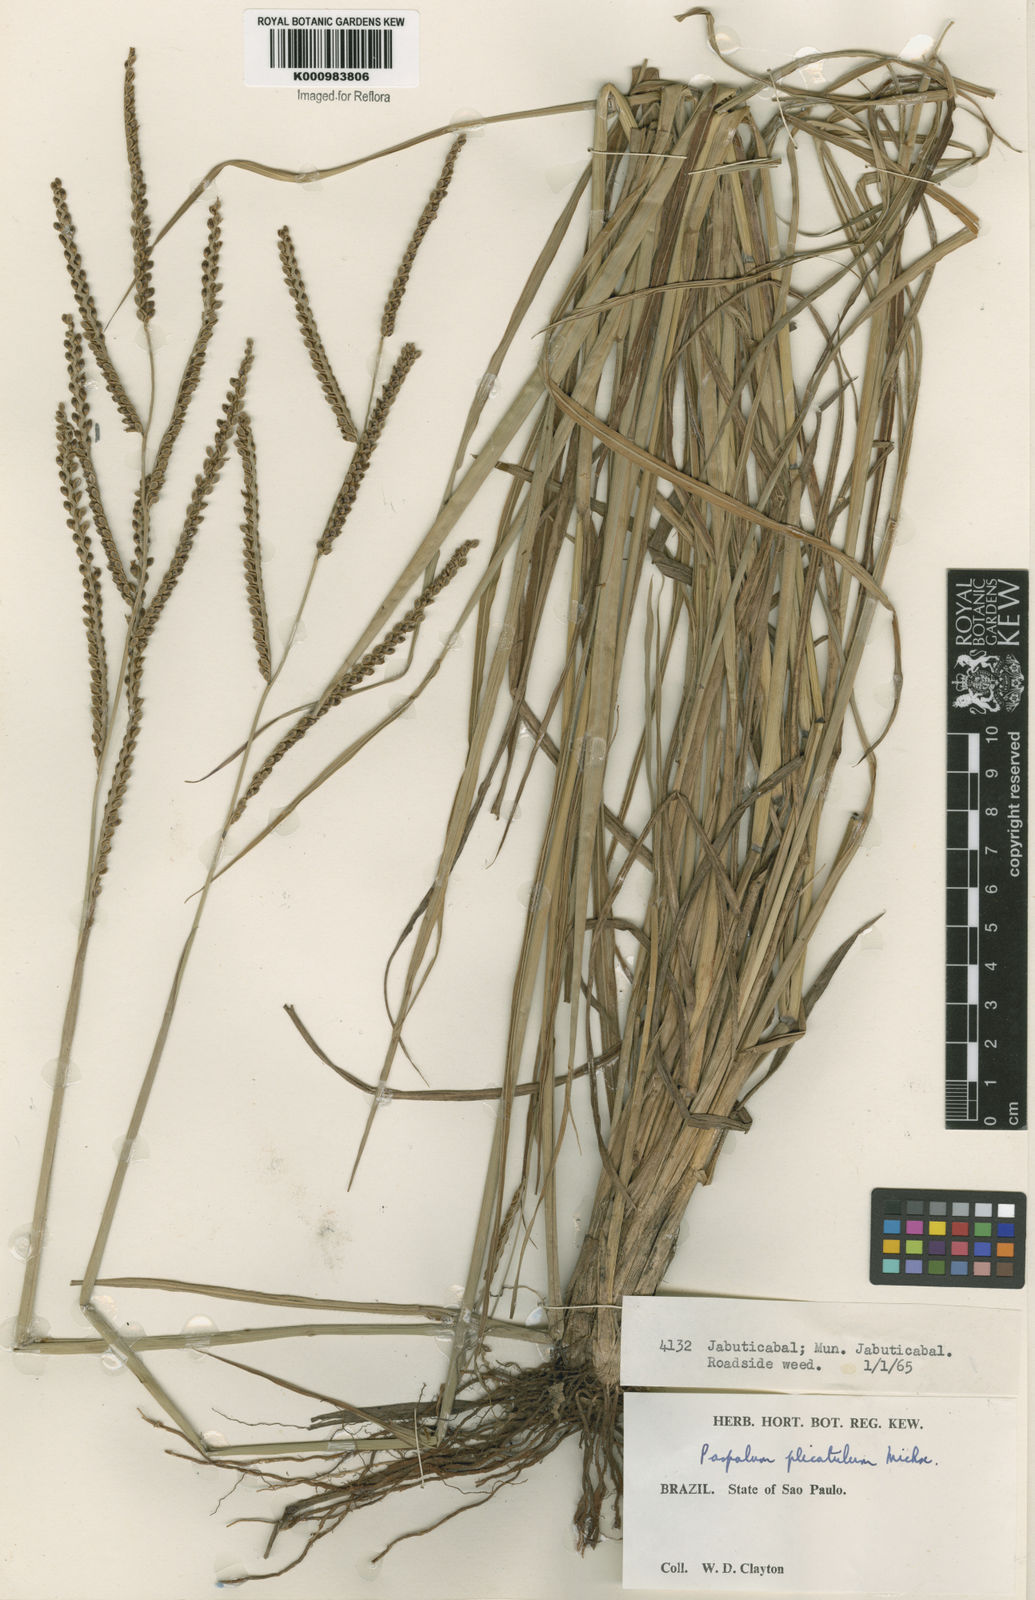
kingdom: Plantae
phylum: Tracheophyta
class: Liliopsida
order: Poales
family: Poaceae
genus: Paspalum
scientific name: Paspalum plicatulum
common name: Top paspalum
